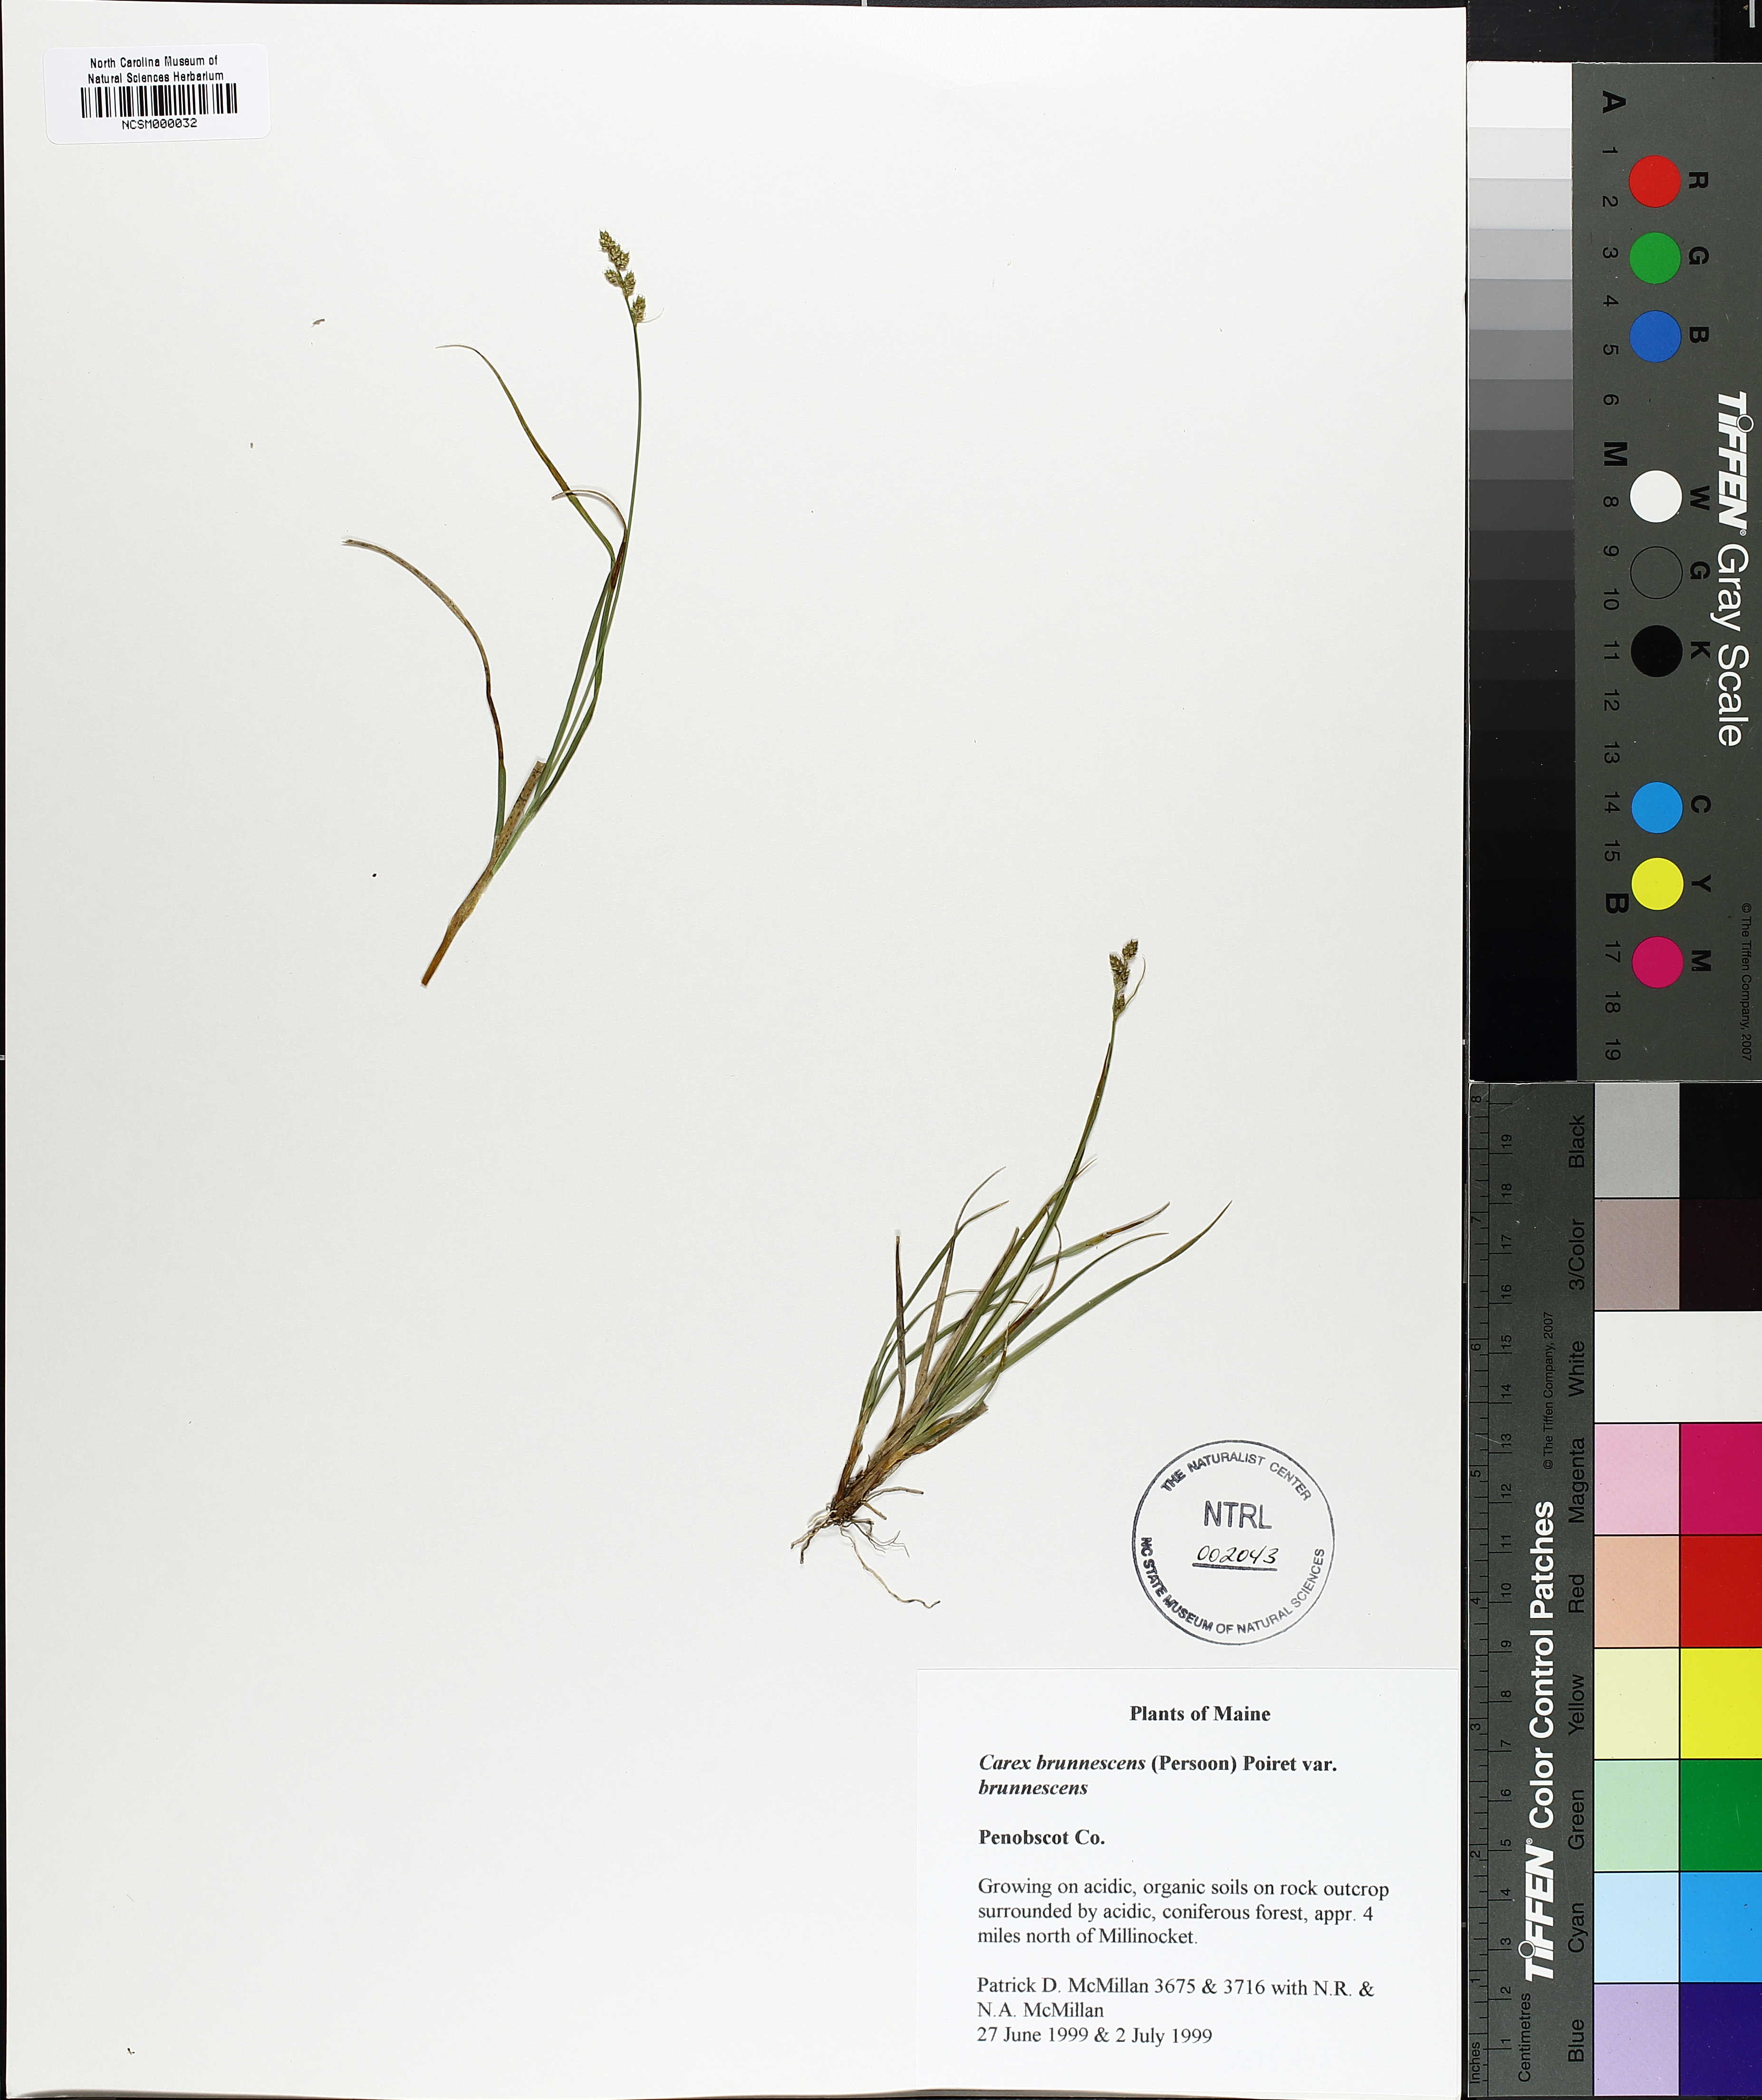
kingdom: Plantae
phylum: Tracheophyta
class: Liliopsida
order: Poales
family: Cyperaceae
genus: Carex
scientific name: Carex brunnescens
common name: Brown sedge
